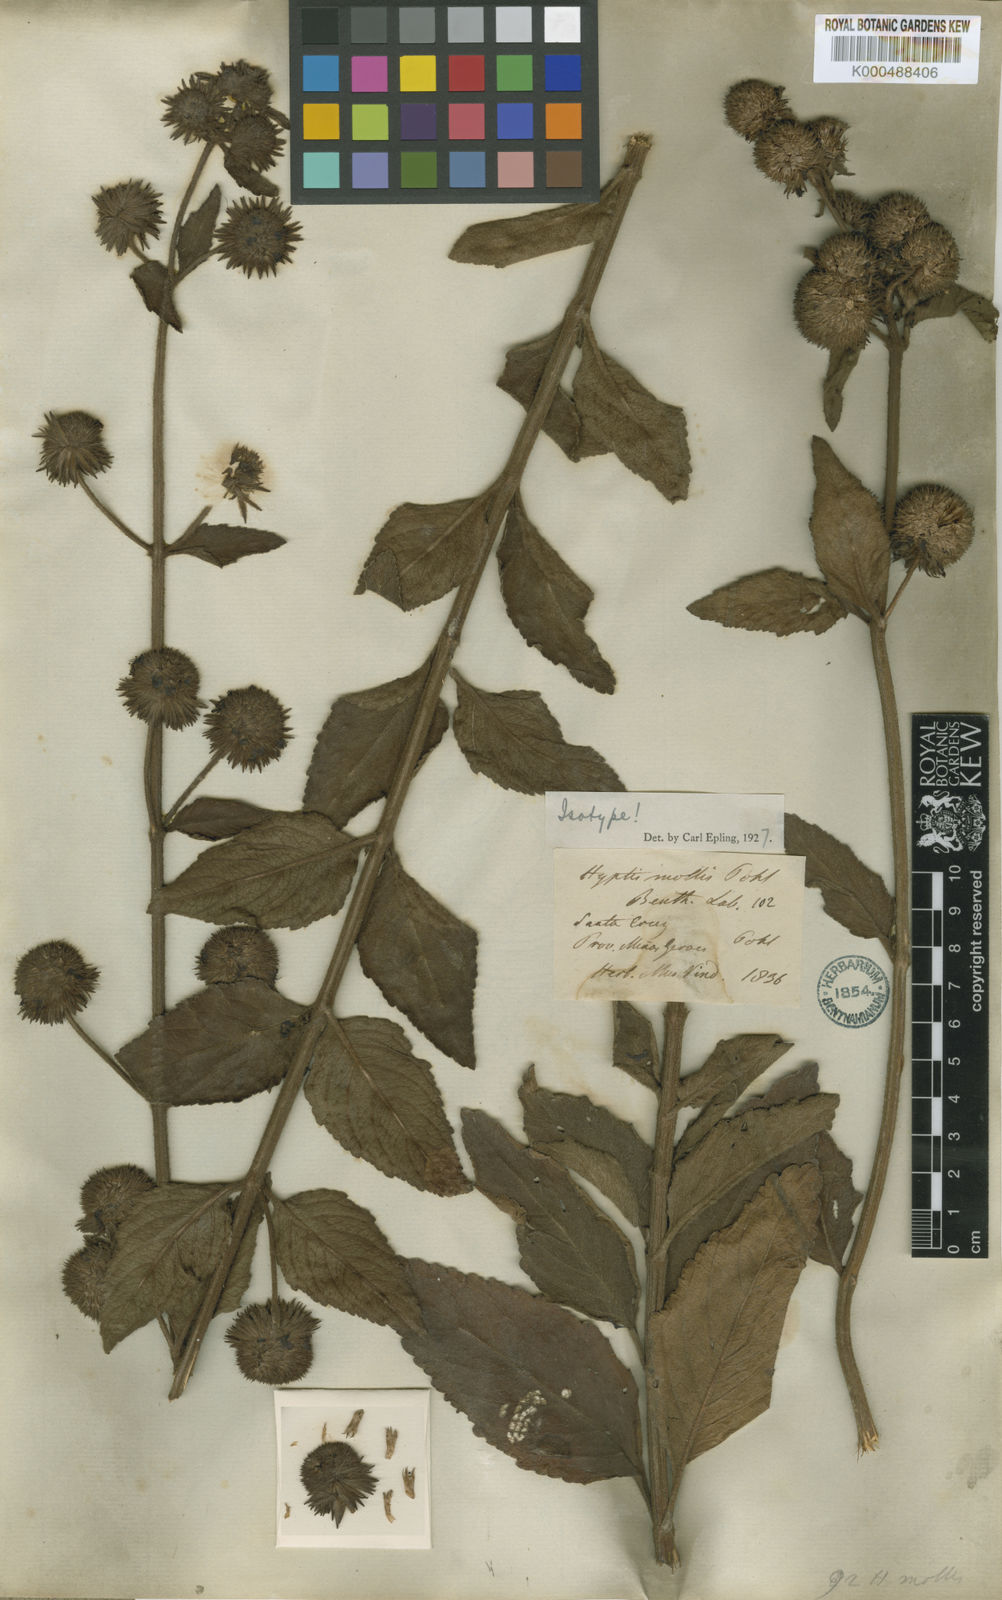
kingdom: Plantae
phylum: Tracheophyta
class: Magnoliopsida
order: Lamiales
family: Lamiaceae
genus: Hyptis
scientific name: Hyptis mollis
